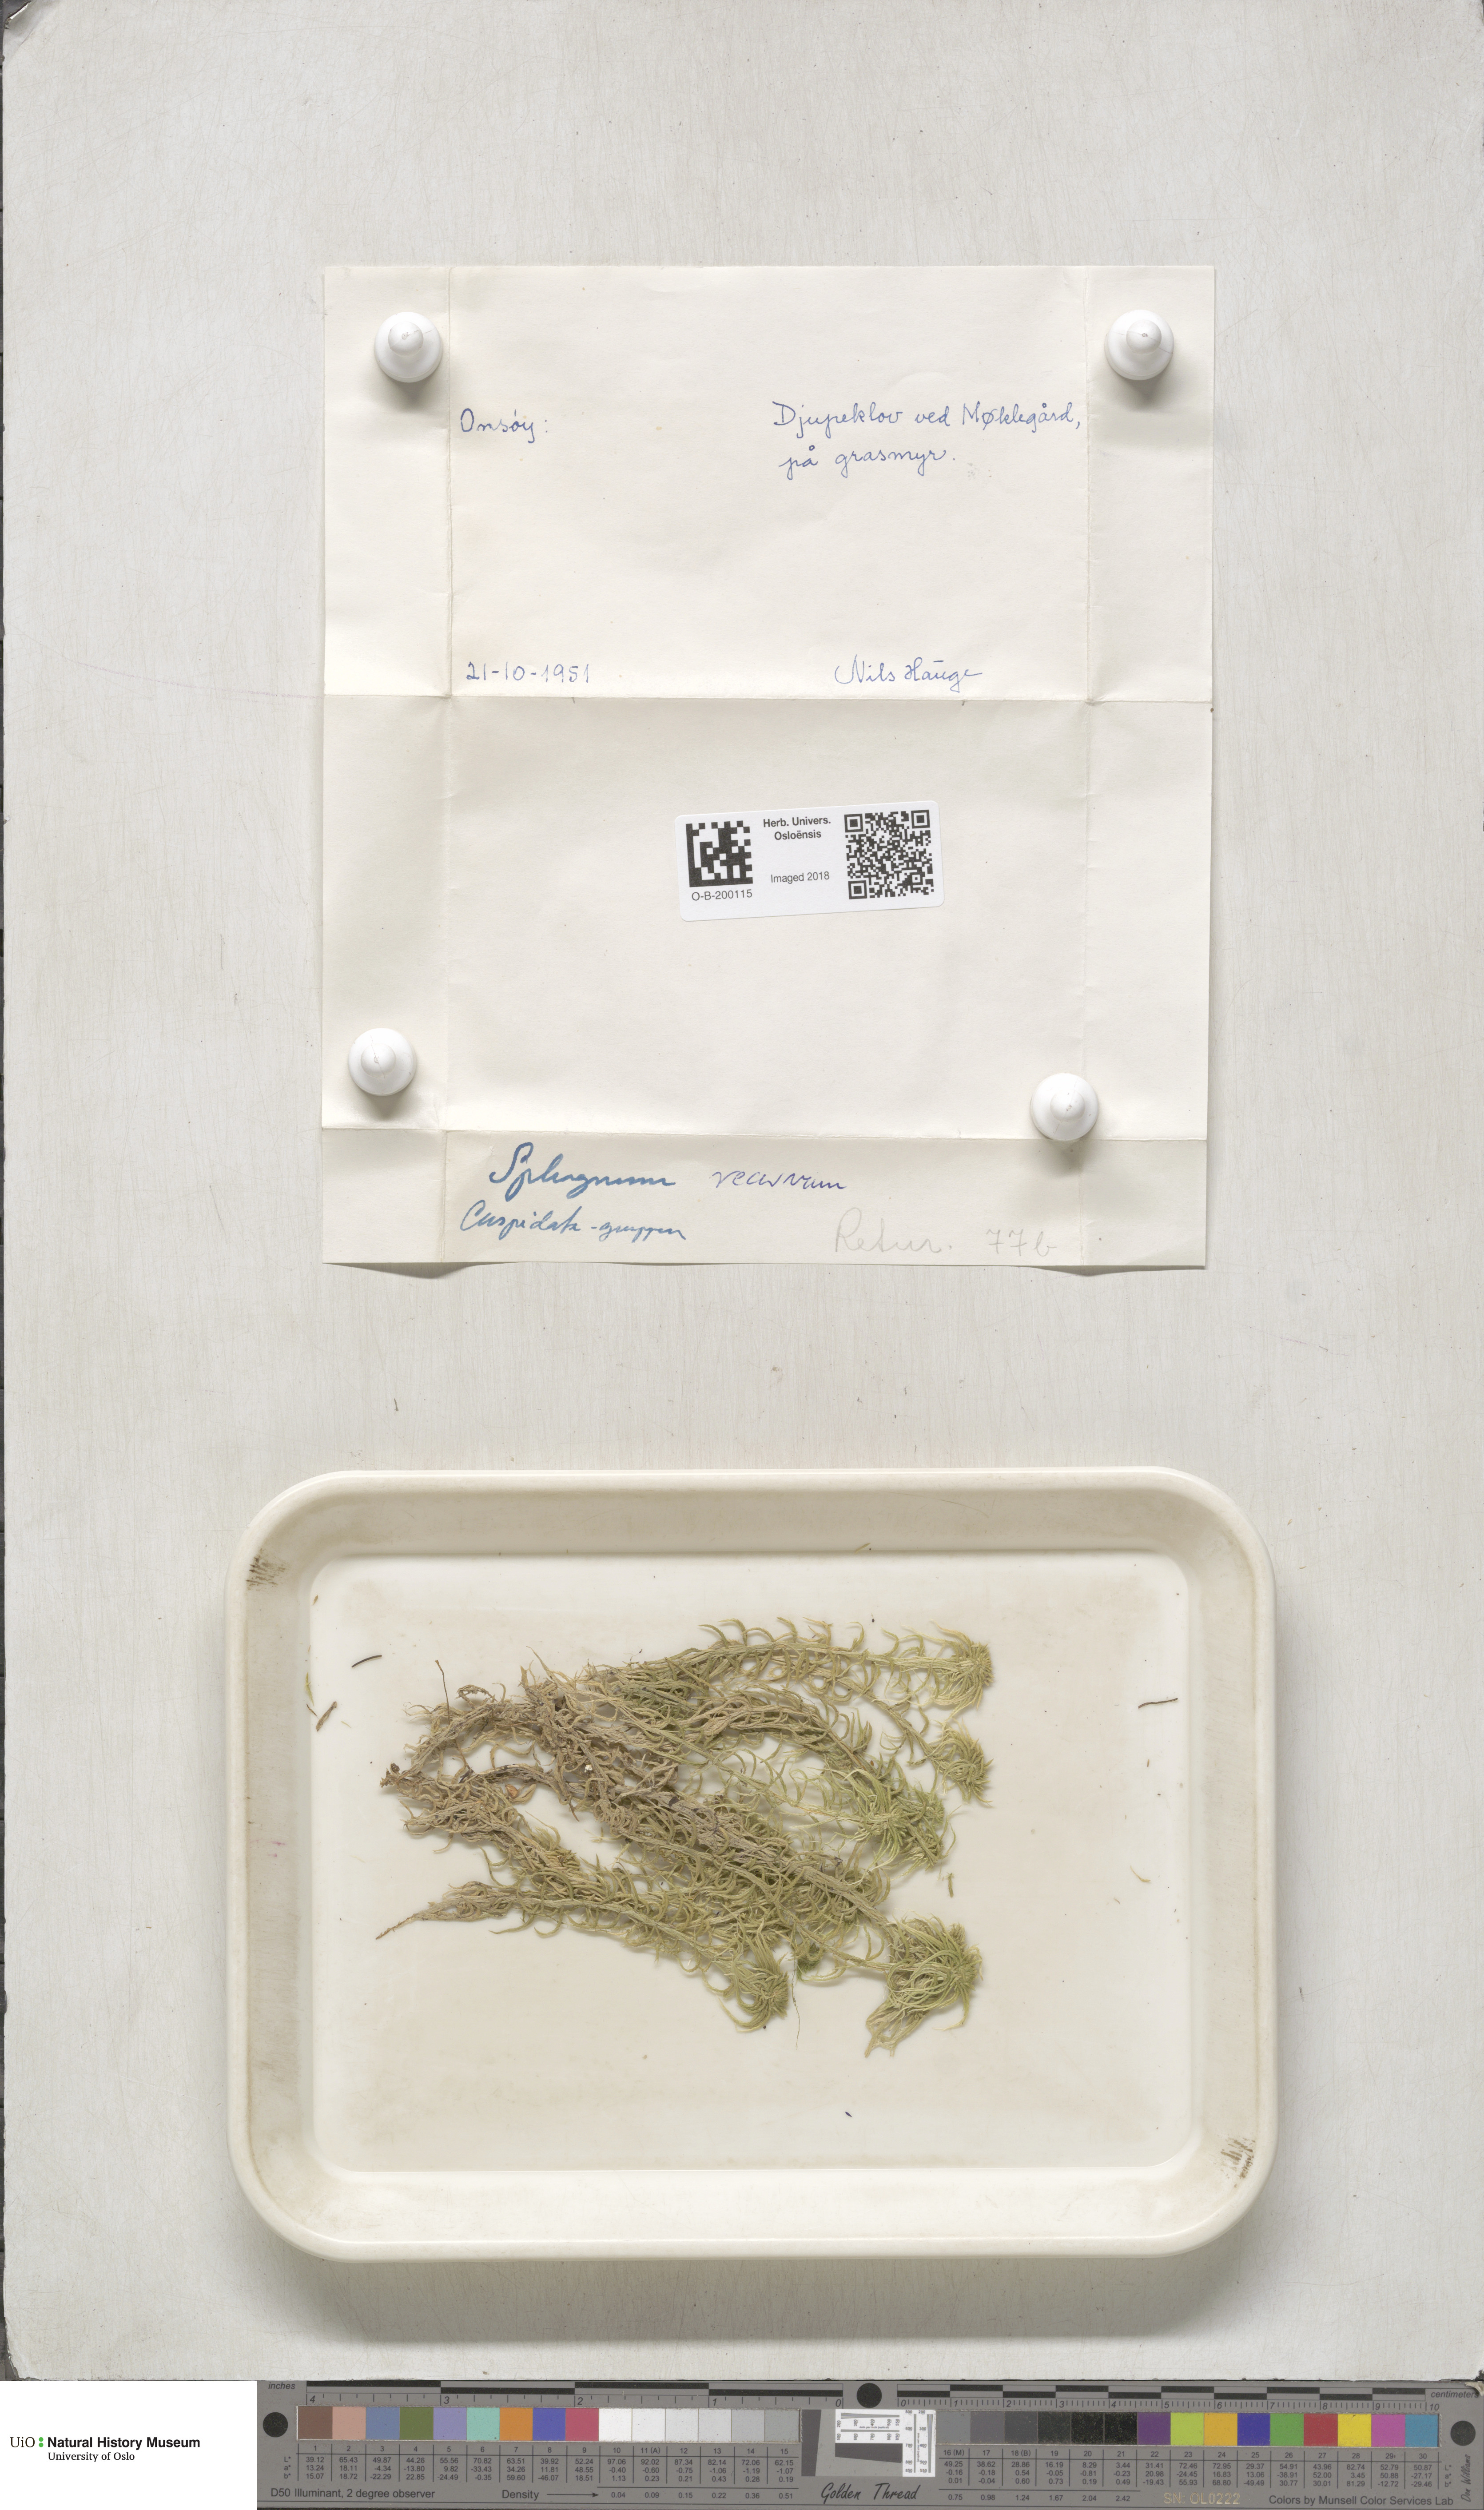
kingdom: Plantae
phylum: Bryophyta
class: Sphagnopsida
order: Sphagnales
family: Sphagnaceae
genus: Sphagnum
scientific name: Sphagnum fallax
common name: Flat-top peat moss
